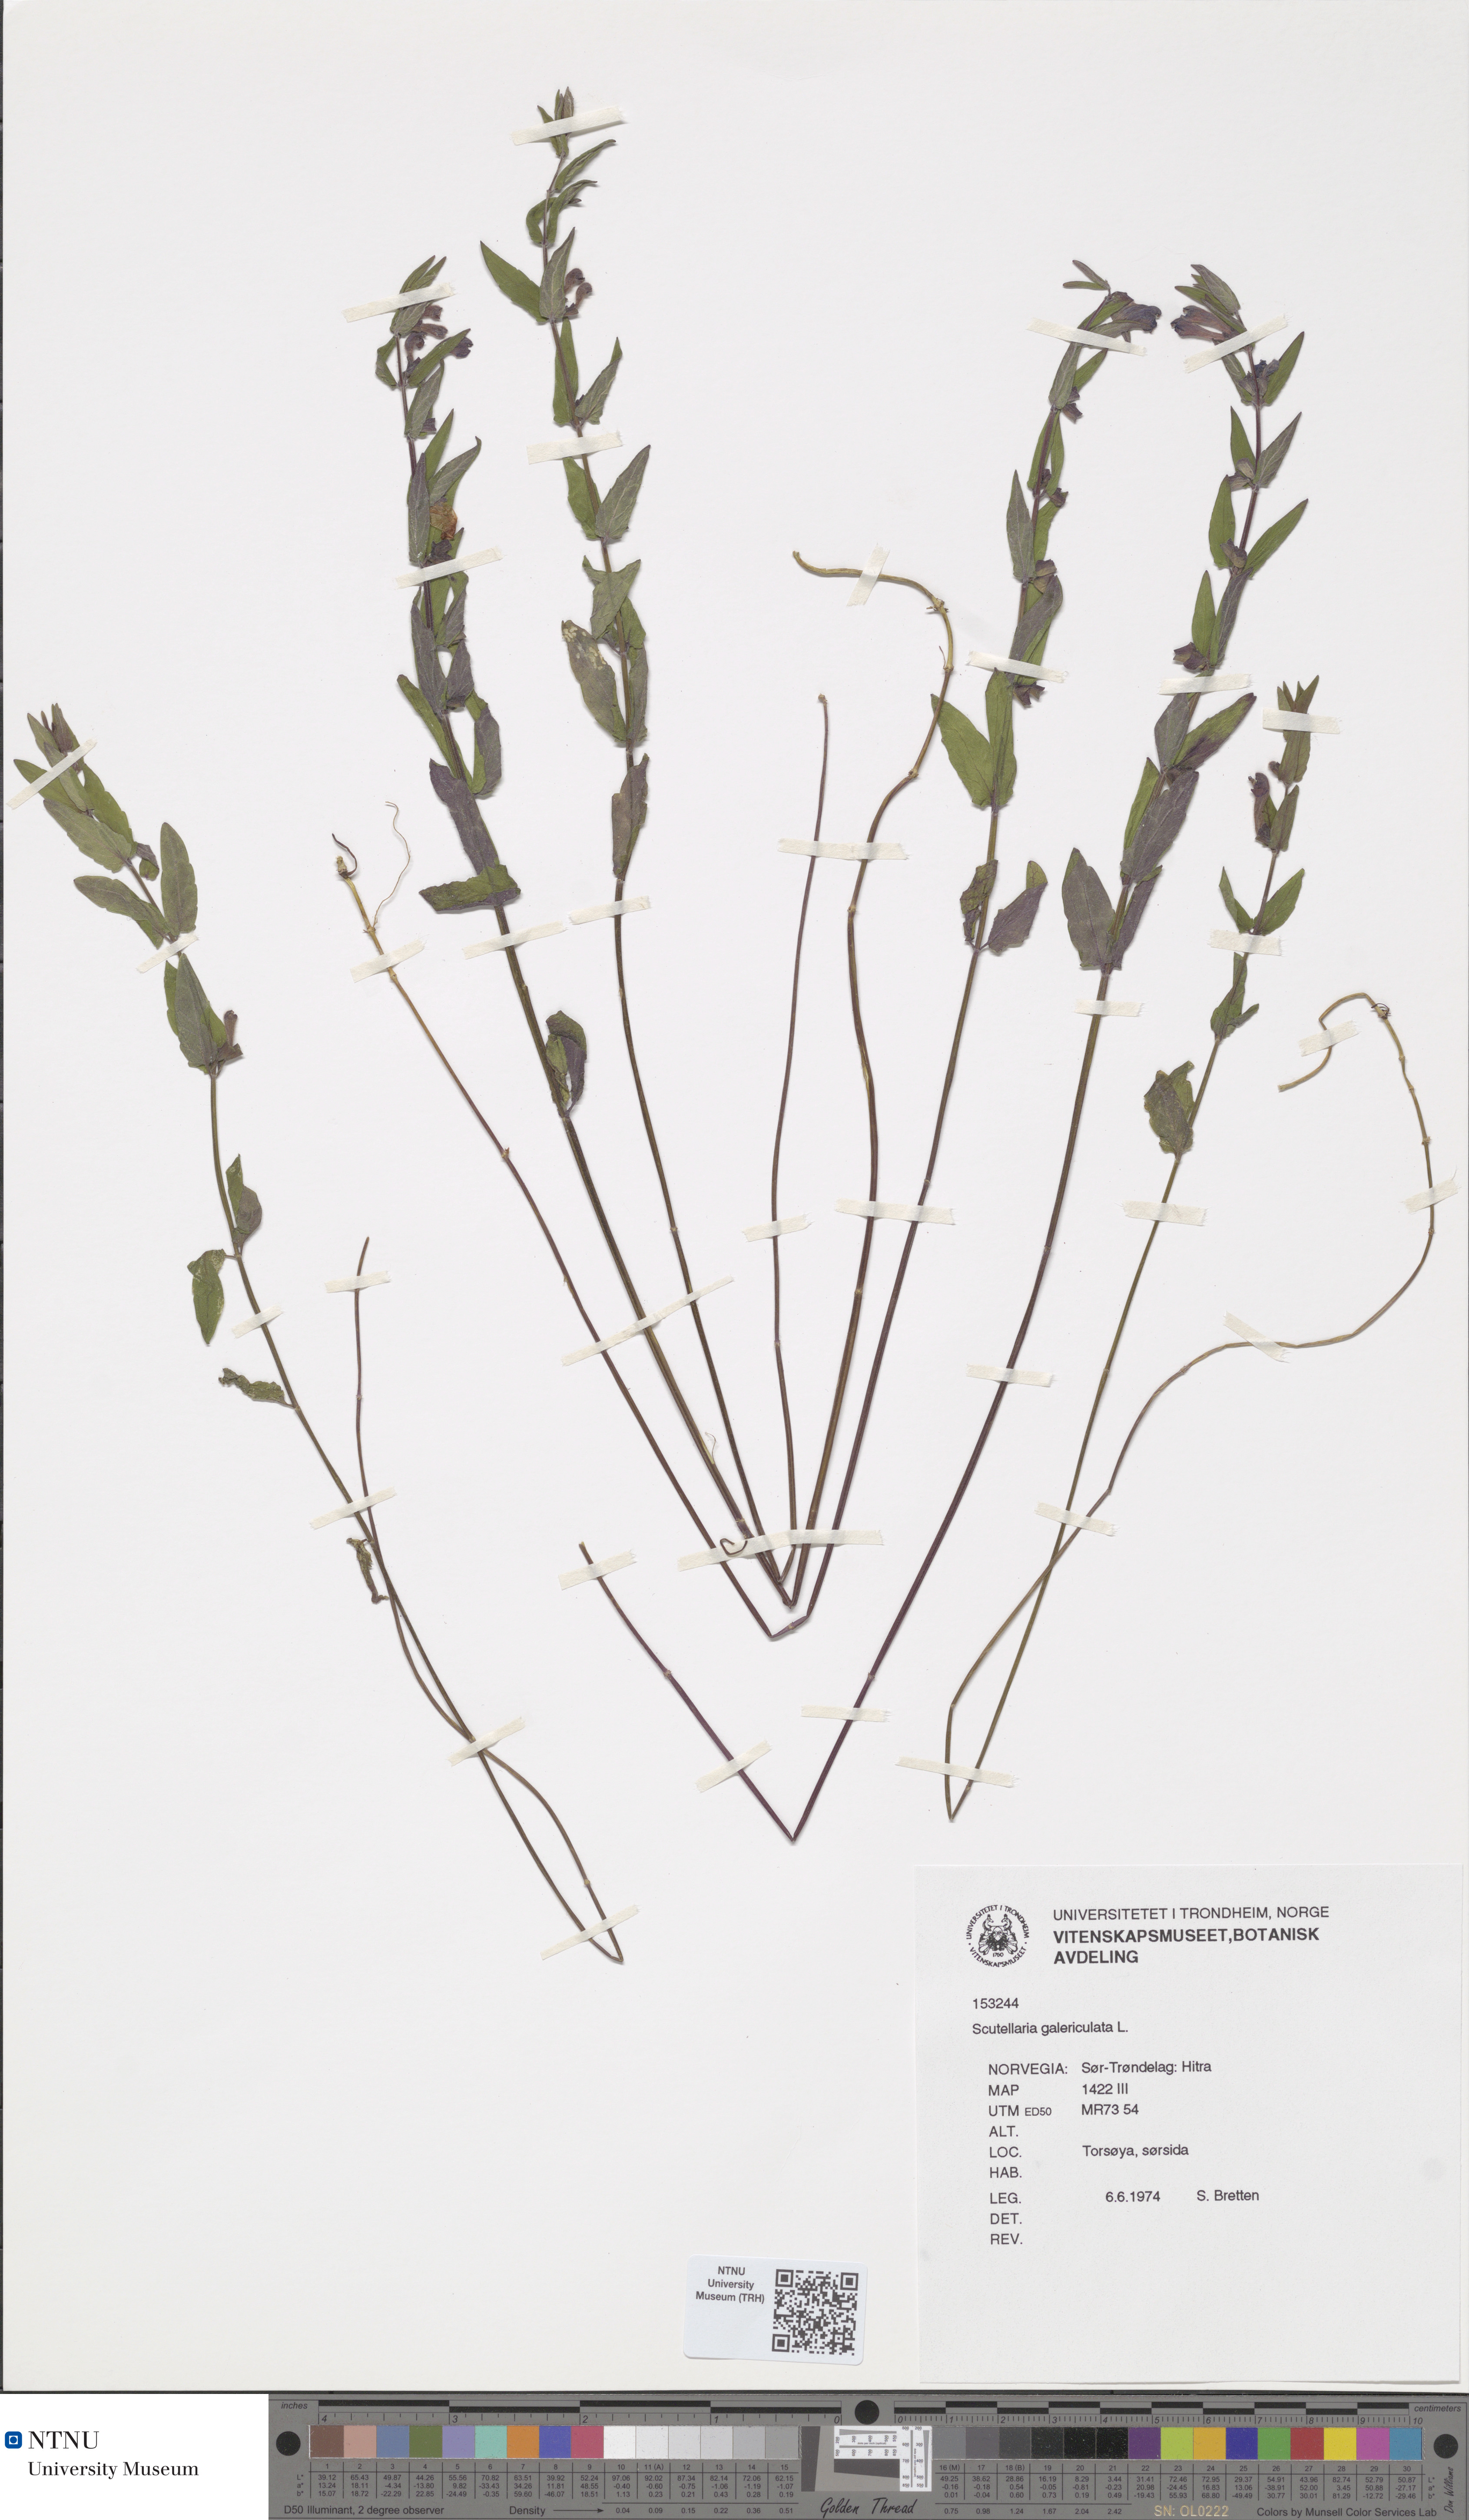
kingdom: Plantae
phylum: Tracheophyta
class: Magnoliopsida
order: Lamiales
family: Lamiaceae
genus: Scutellaria
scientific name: Scutellaria galericulata
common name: Skullcap
